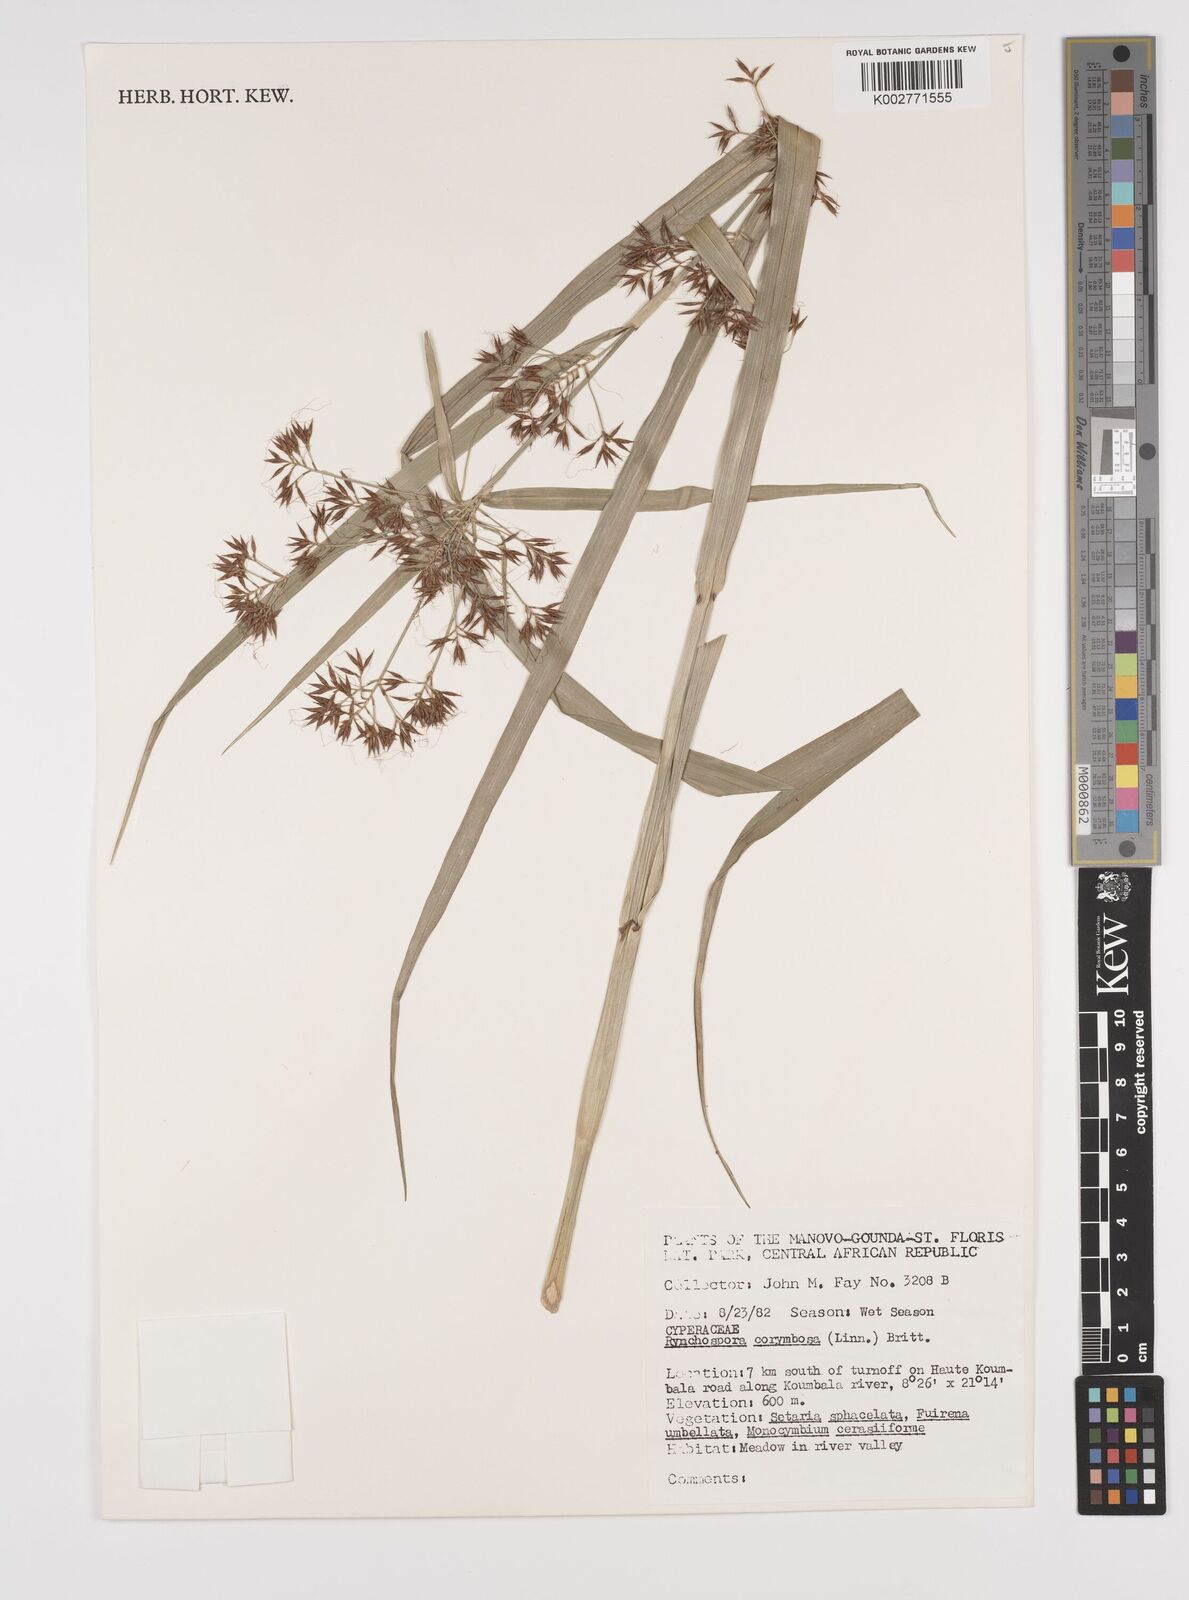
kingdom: Plantae
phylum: Tracheophyta
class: Liliopsida
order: Poales
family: Cyperaceae
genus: Rhynchospora
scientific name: Rhynchospora corymbosa
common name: Golden beak sedge
